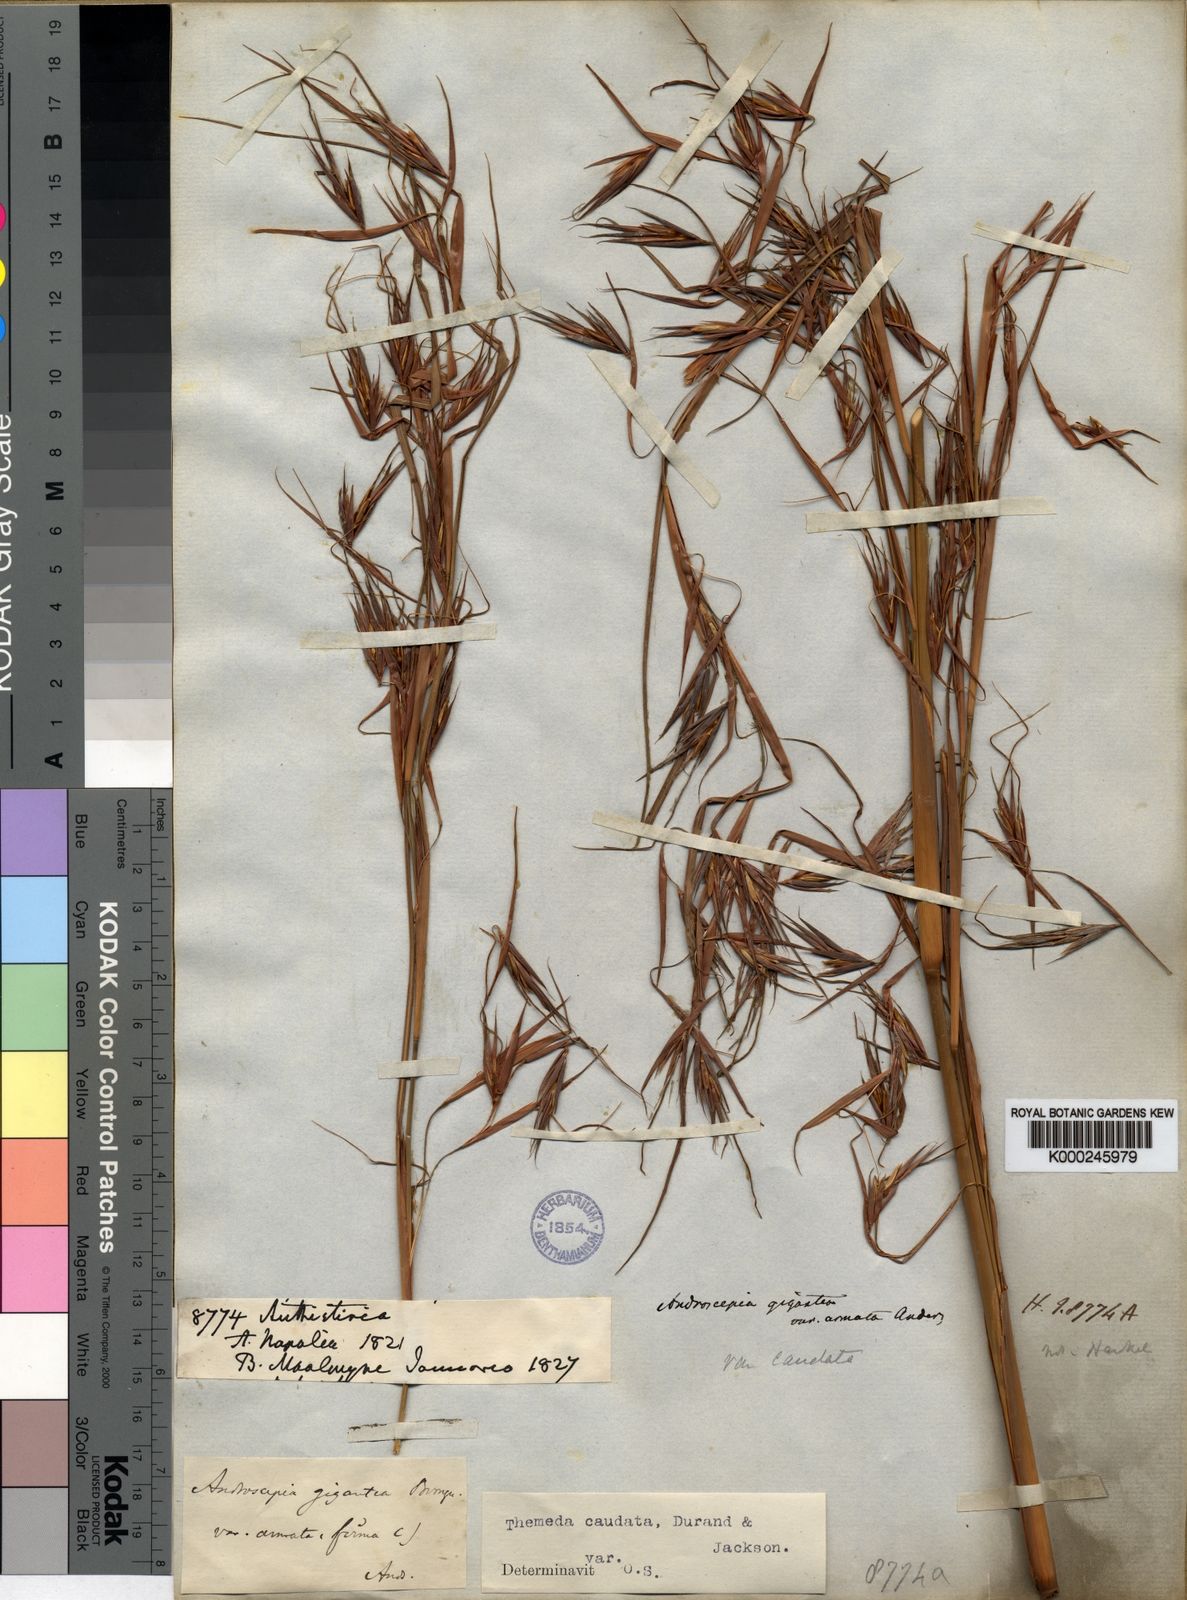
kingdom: Plantae
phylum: Tracheophyta
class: Liliopsida
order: Poales
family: Poaceae
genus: Themeda
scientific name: Themeda
